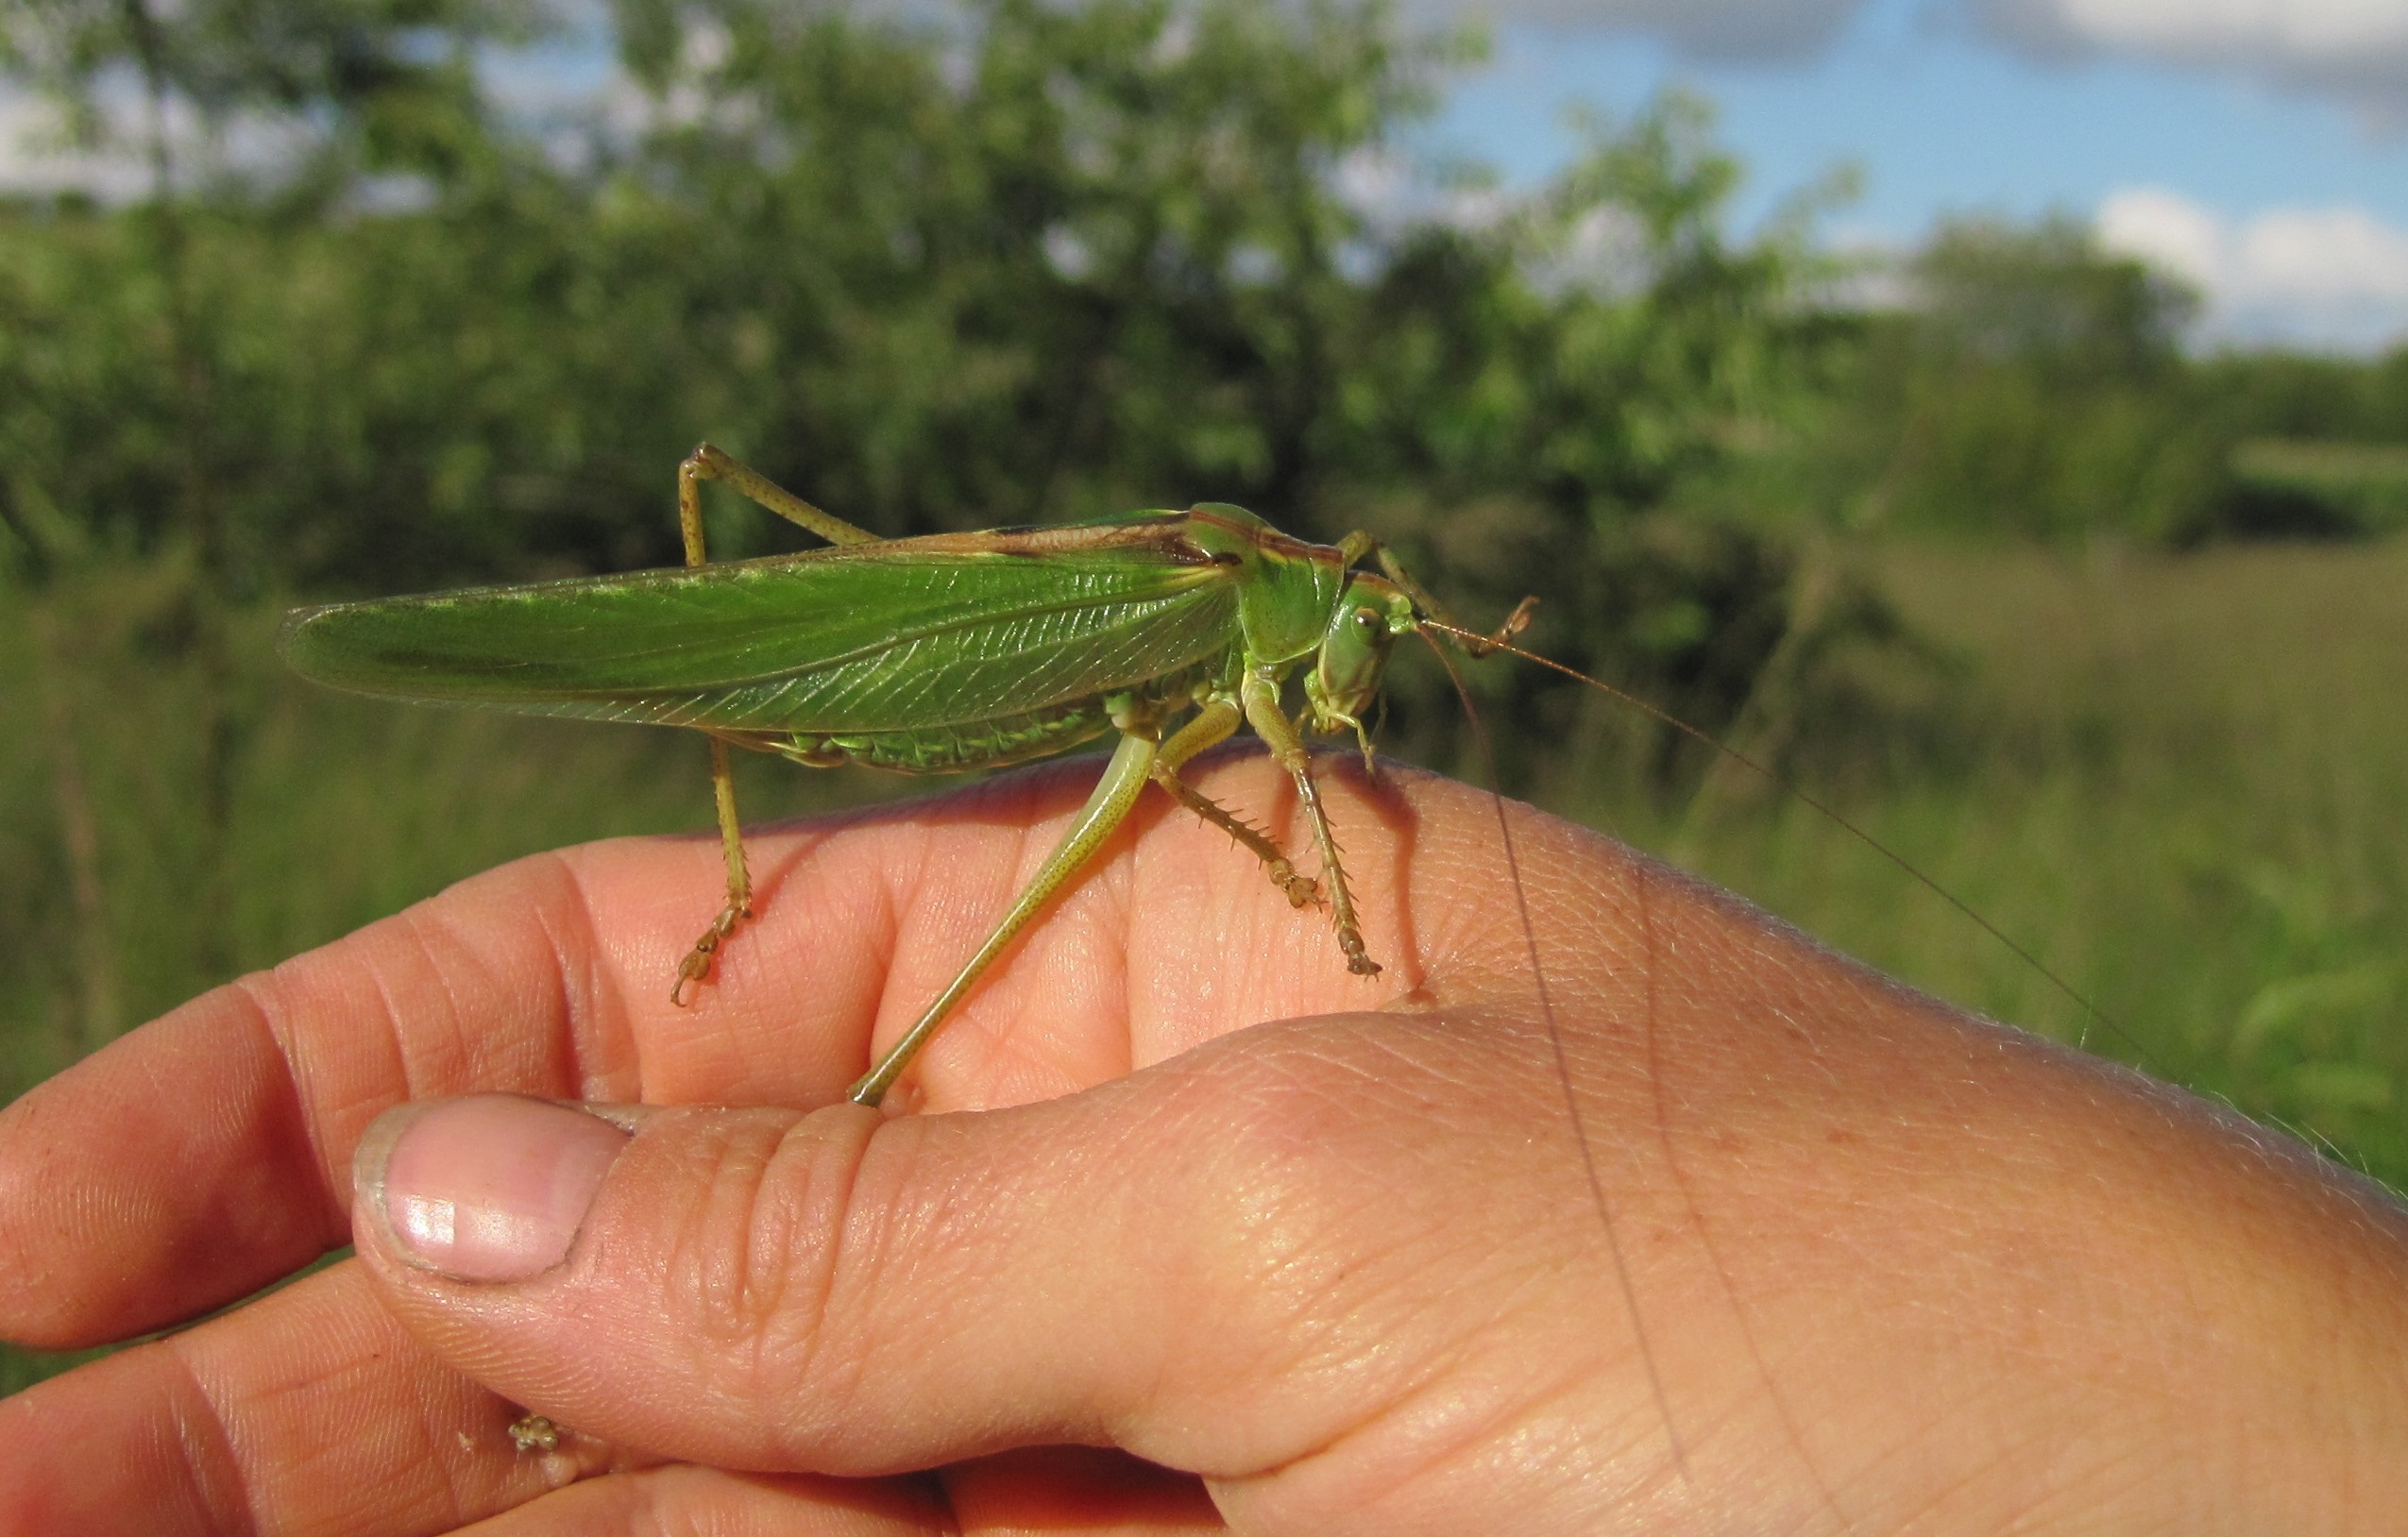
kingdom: Animalia
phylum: Arthropoda
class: Insecta
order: Orthoptera
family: Tettigoniidae
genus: Tettigonia
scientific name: Tettigonia viridissima
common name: Stor grøn løvgræshoppe
